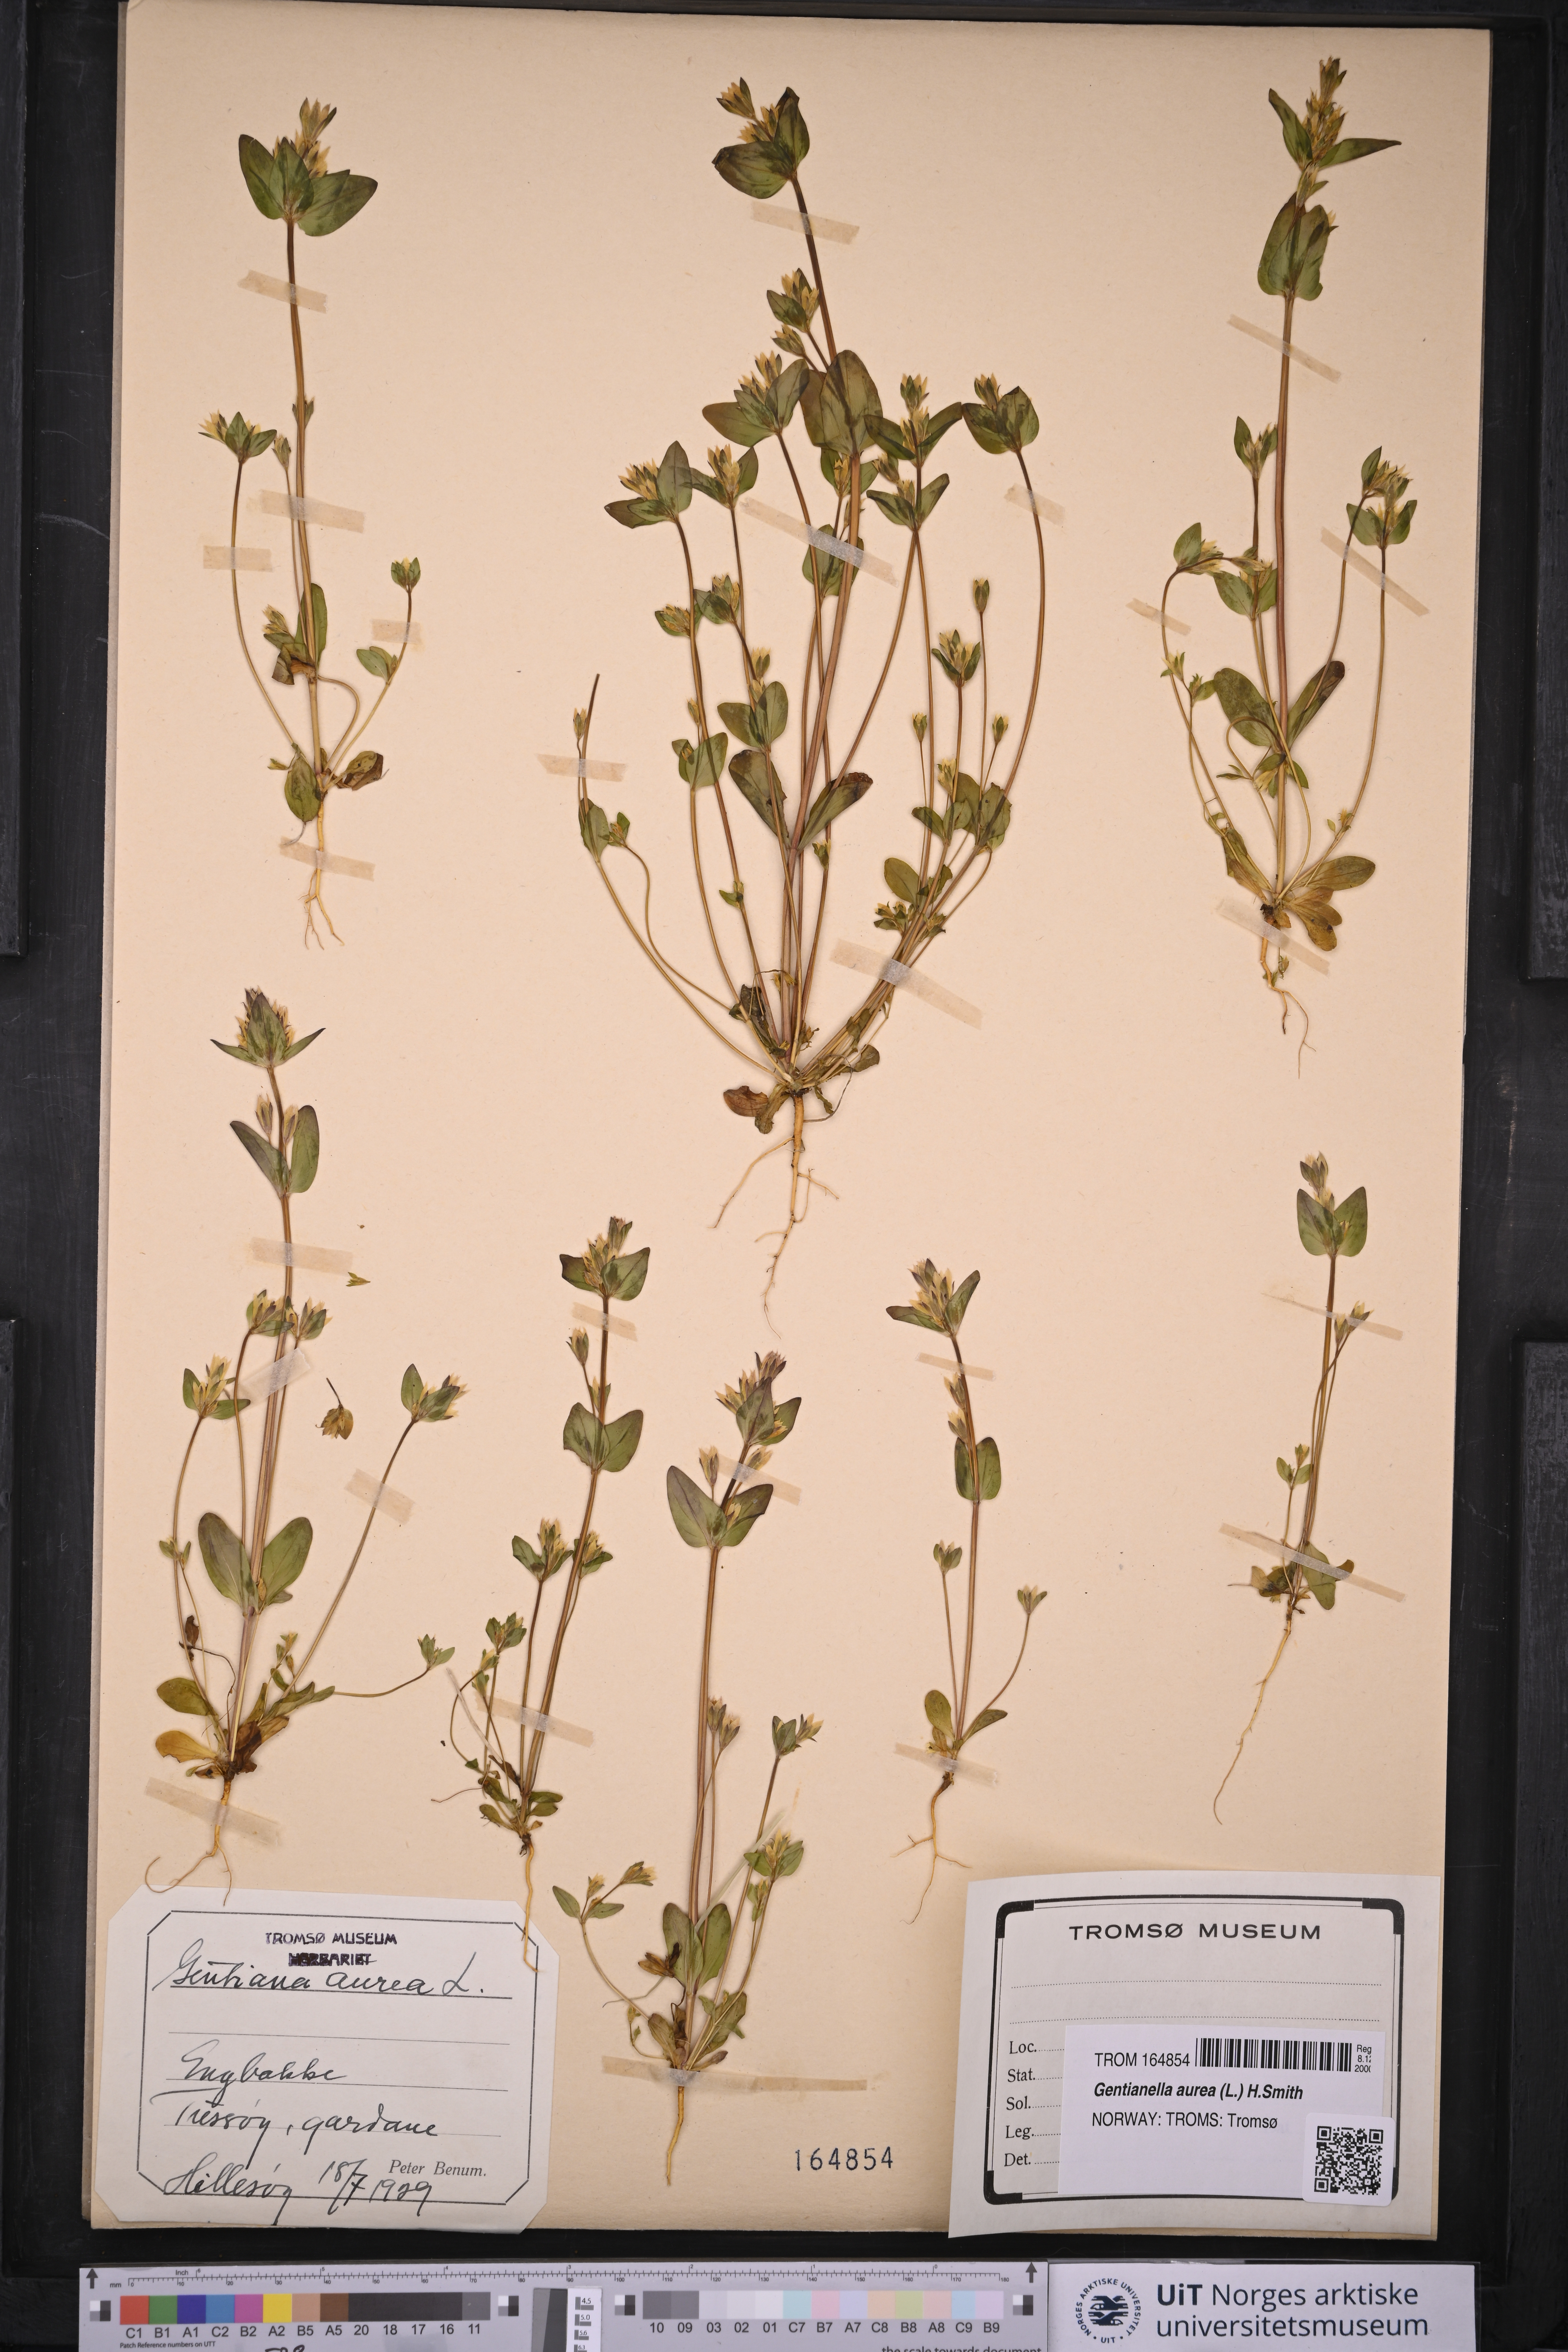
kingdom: Plantae
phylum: Tracheophyta
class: Magnoliopsida
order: Gentianales
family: Gentianaceae
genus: Gentianella
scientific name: Gentianella aurea
